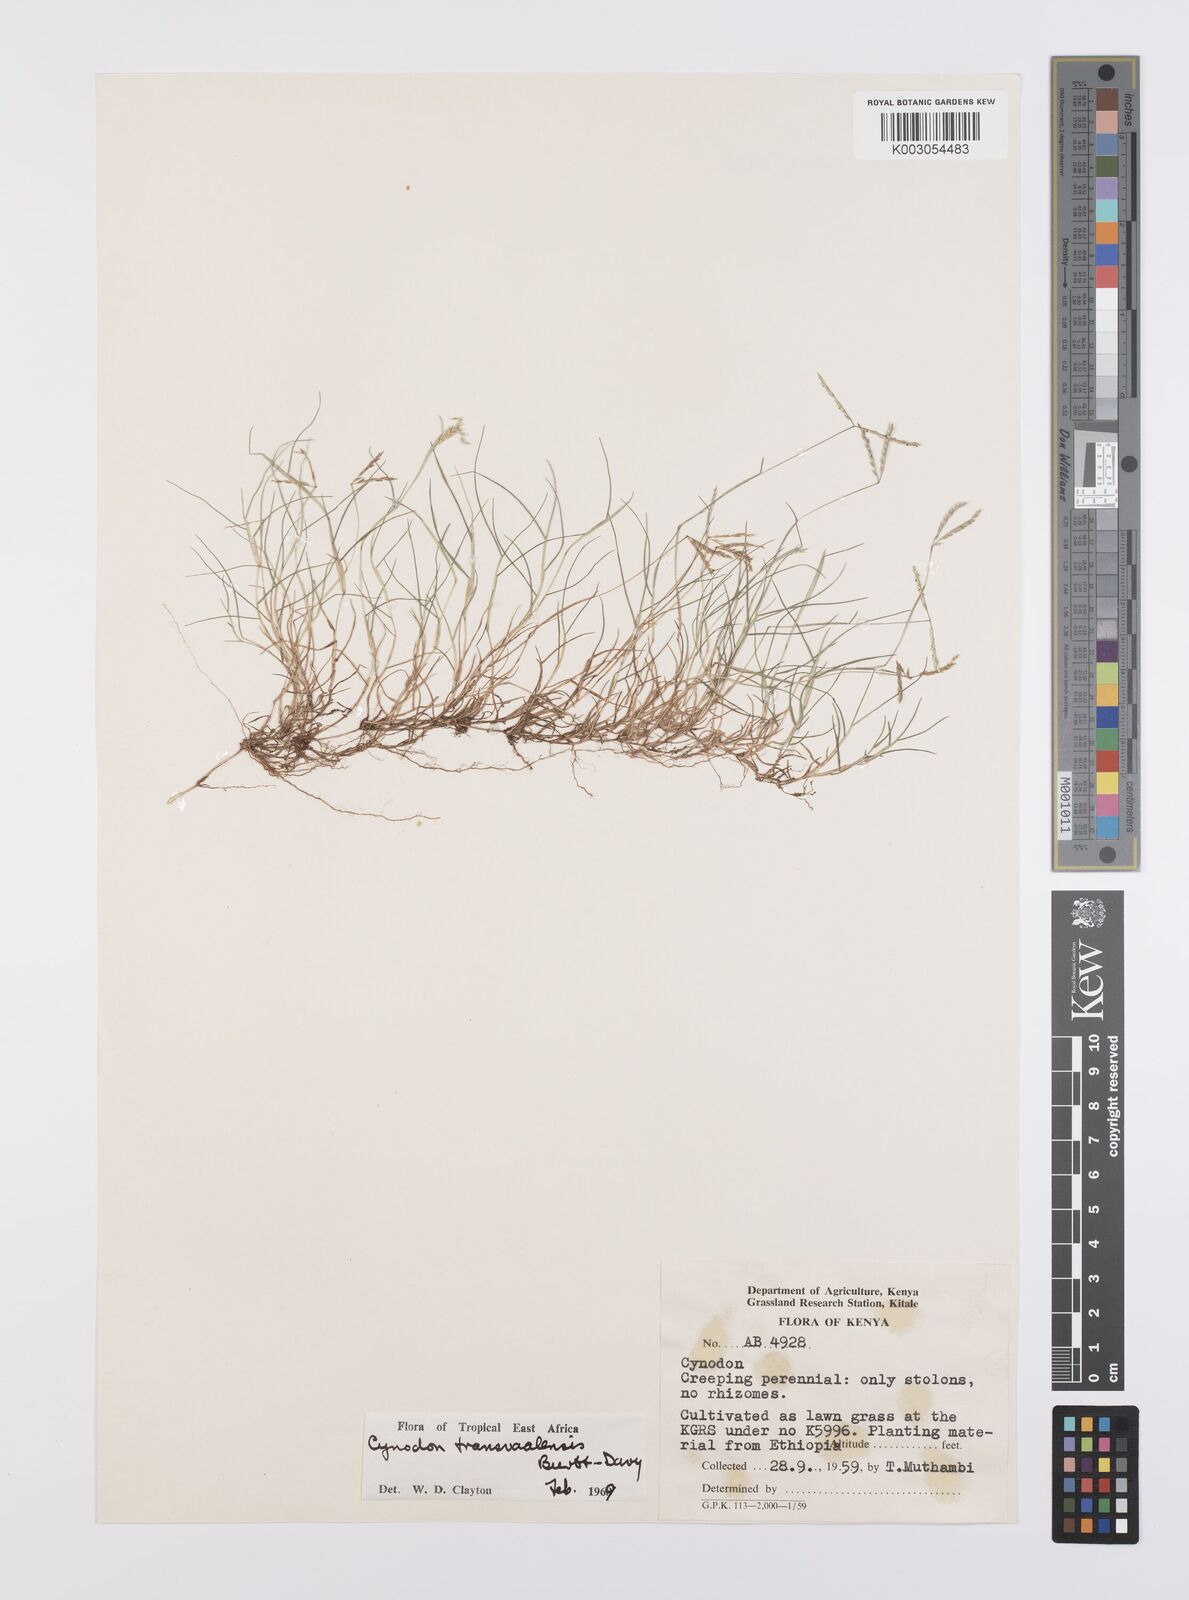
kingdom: Plantae
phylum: Tracheophyta
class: Liliopsida
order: Poales
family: Poaceae
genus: Cynodon
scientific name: Cynodon transvaalensis
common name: African bermuda grass
